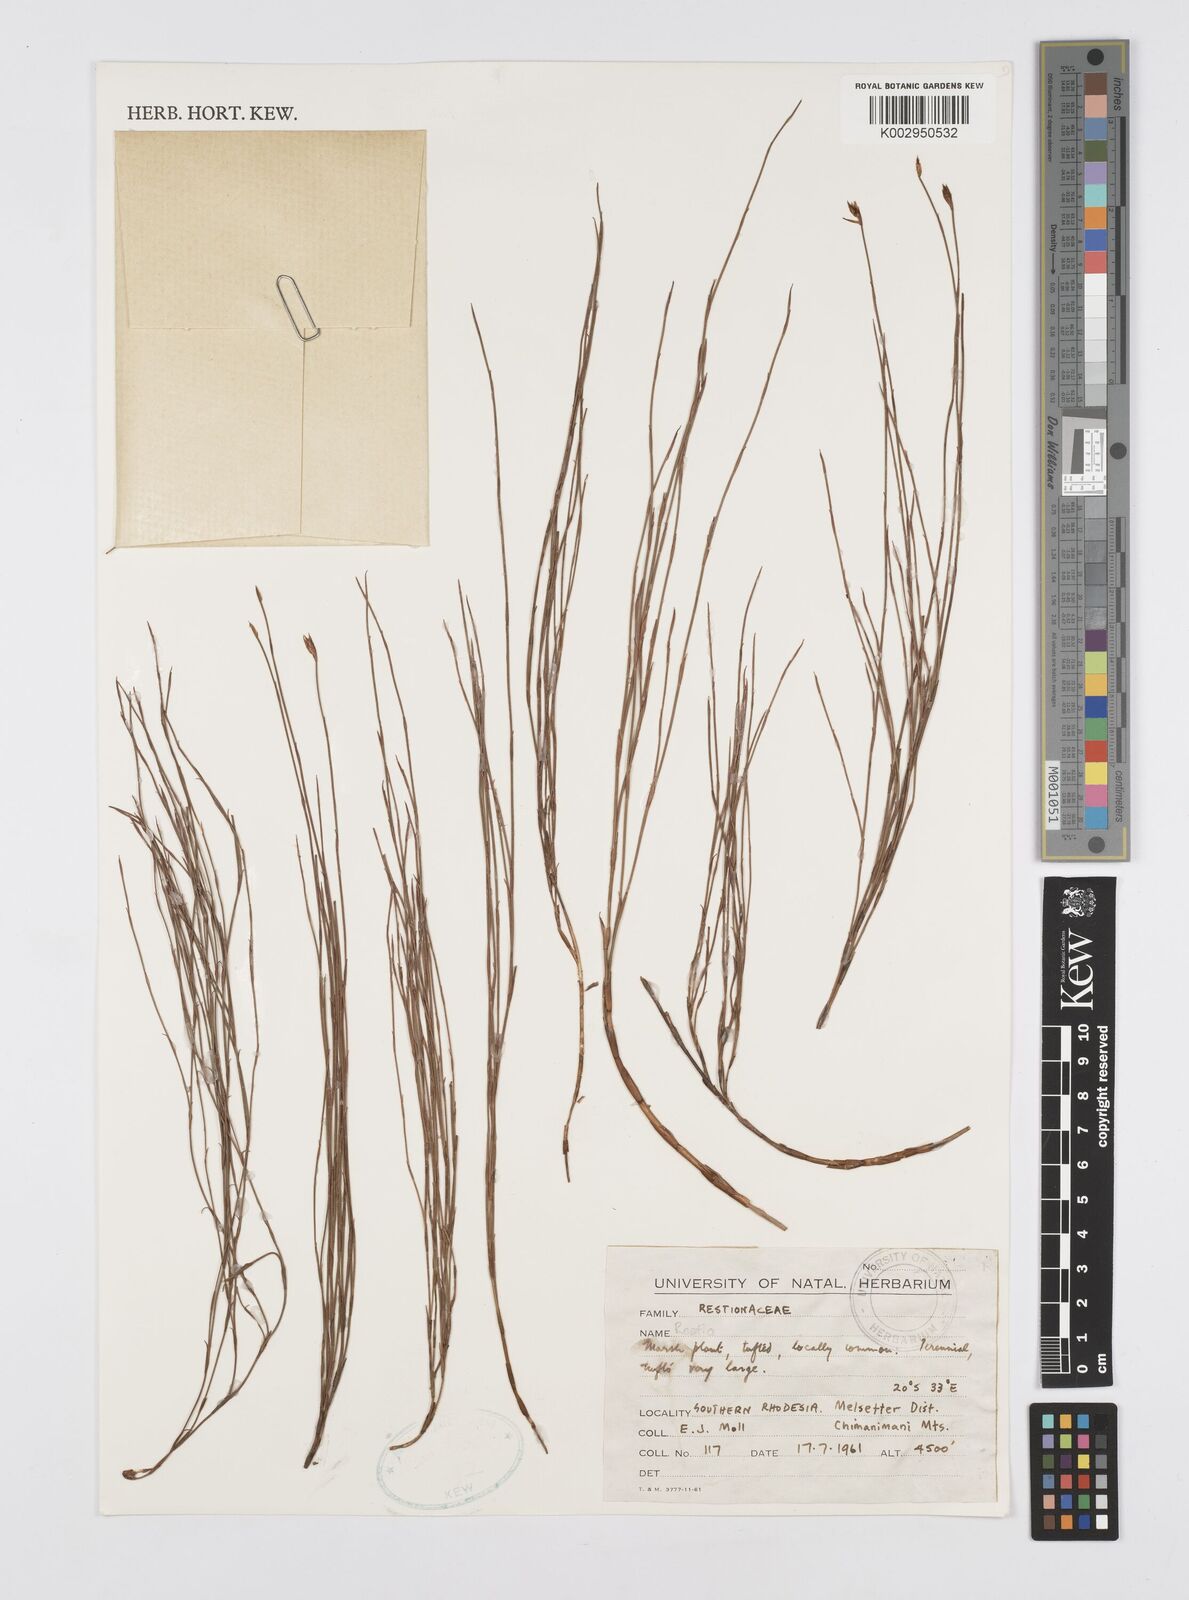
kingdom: Plantae
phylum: Tracheophyta
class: Liliopsida
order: Poales
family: Restionaceae
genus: Restio
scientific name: Restio
